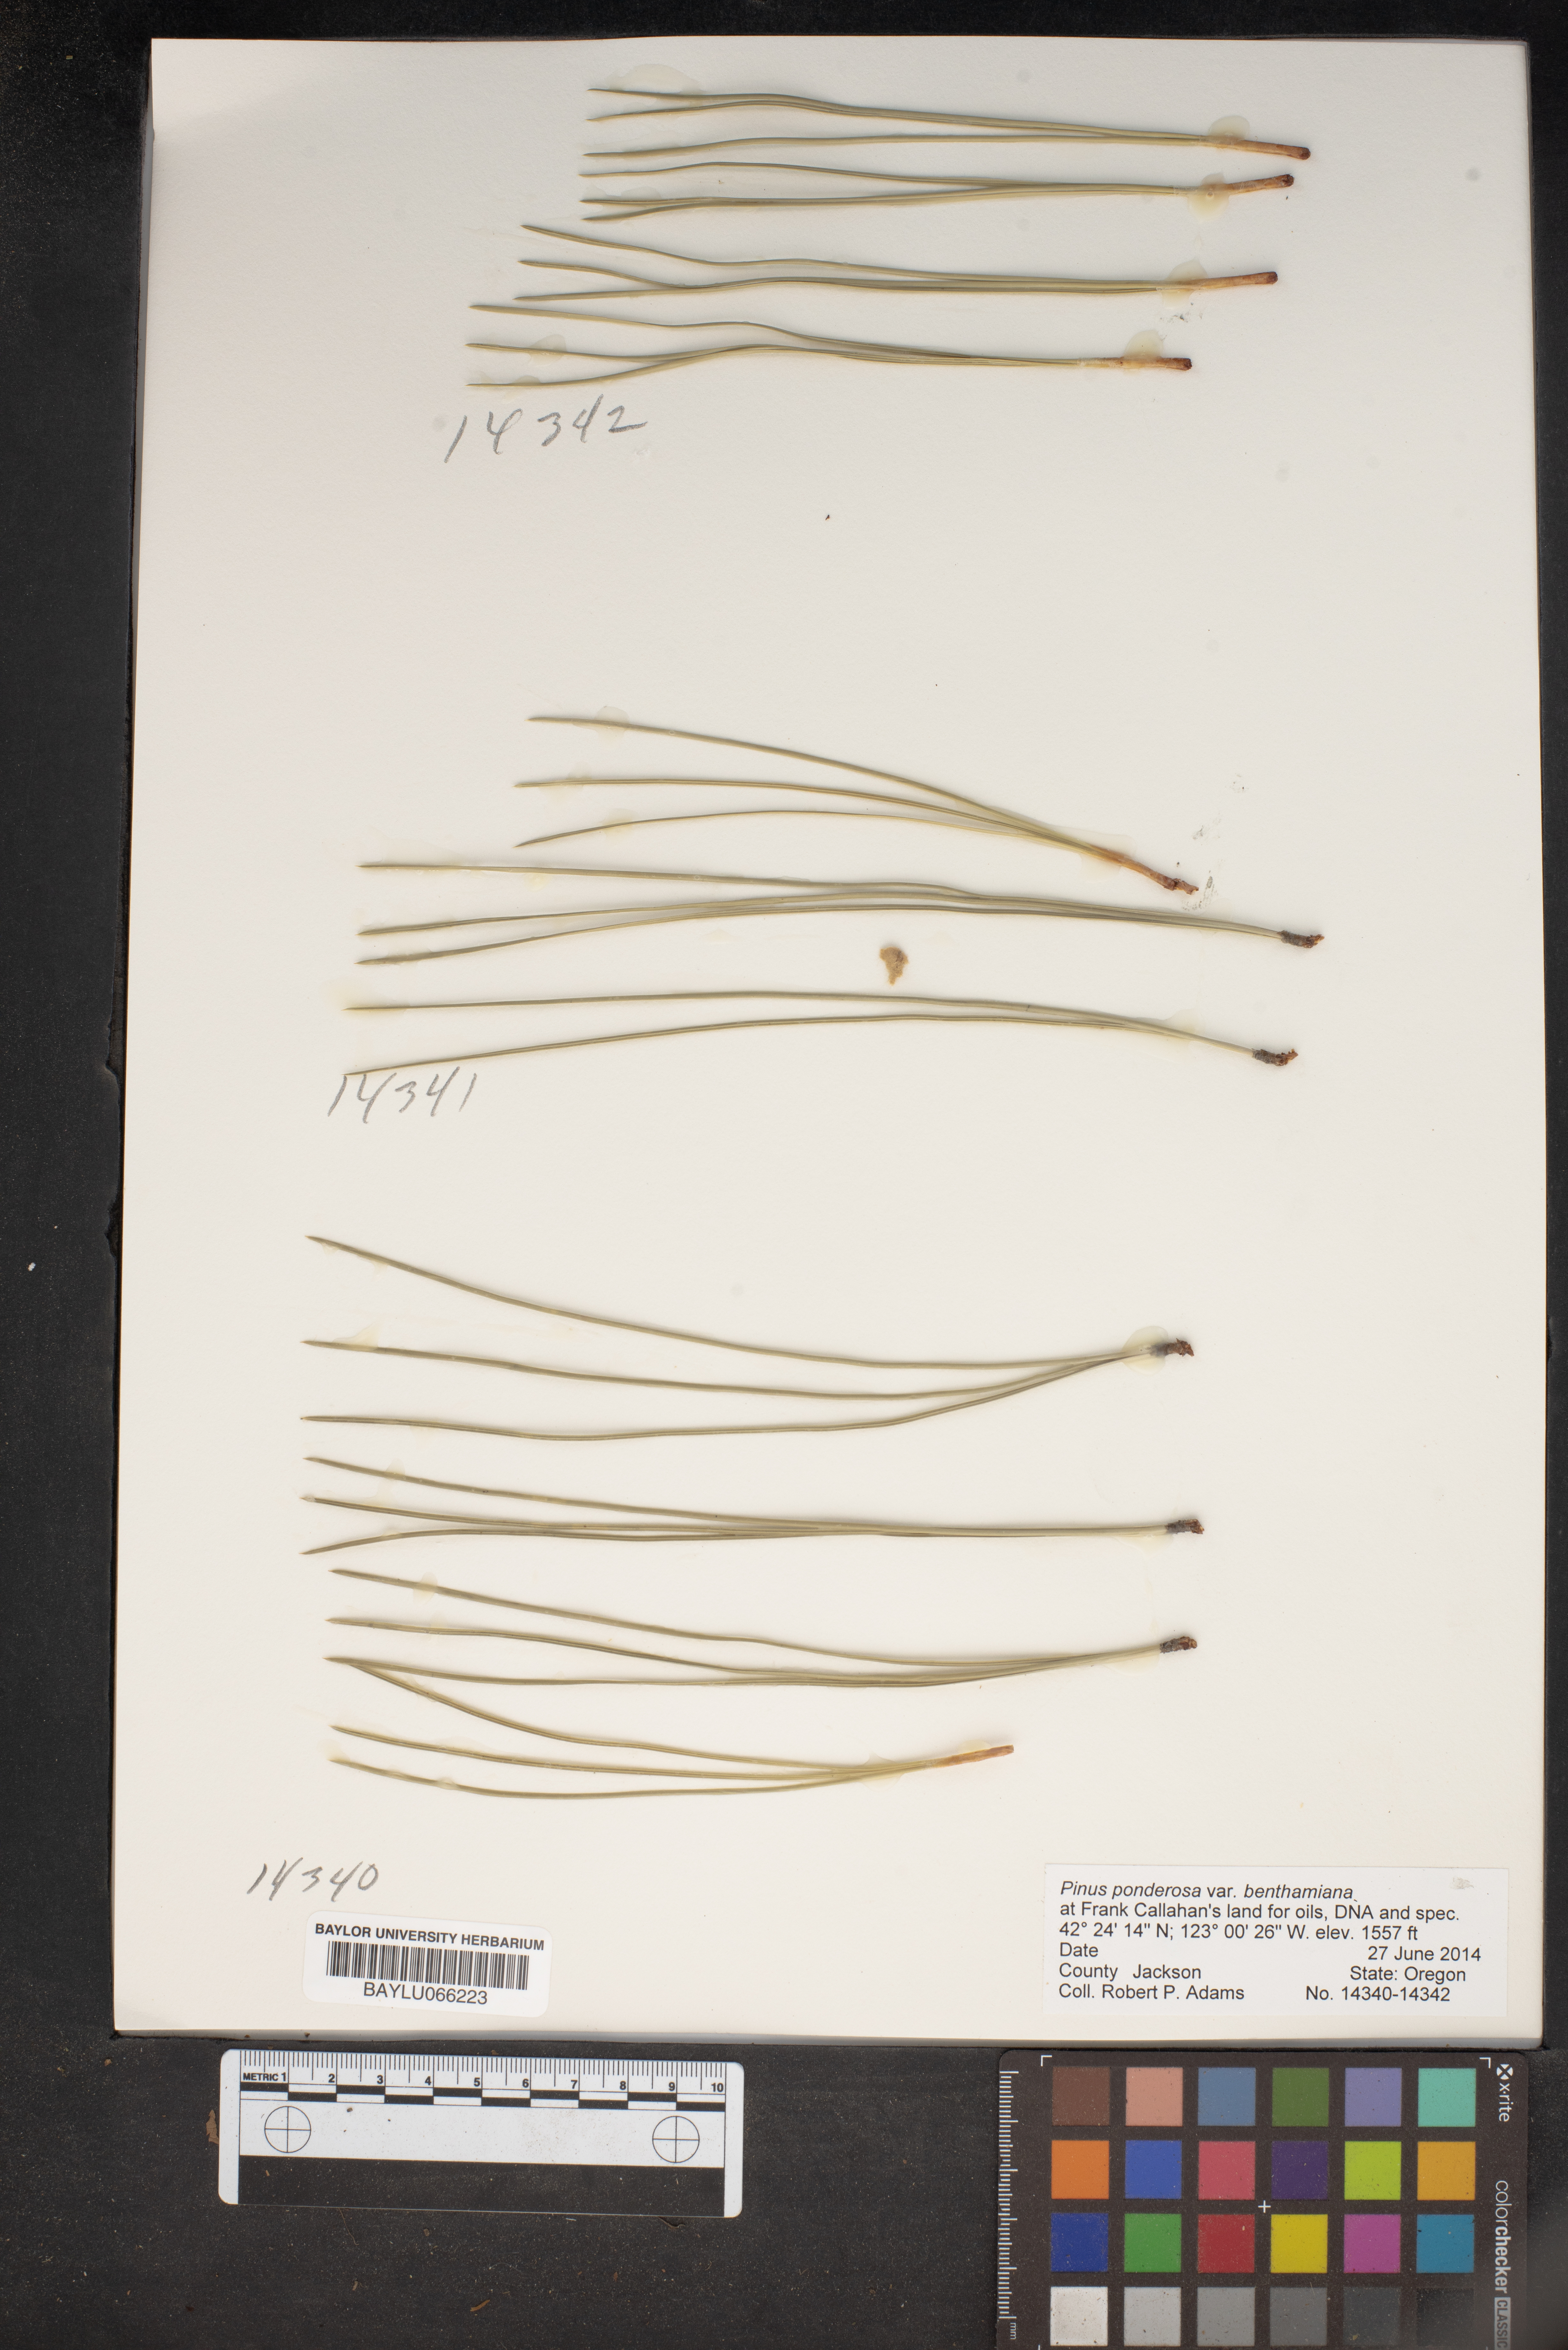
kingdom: Plantae
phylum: Tracheophyta
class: Pinopsida
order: Pinales
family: Pinaceae
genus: Pinus
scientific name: Pinus ponderosa
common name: Western yellow-pine
